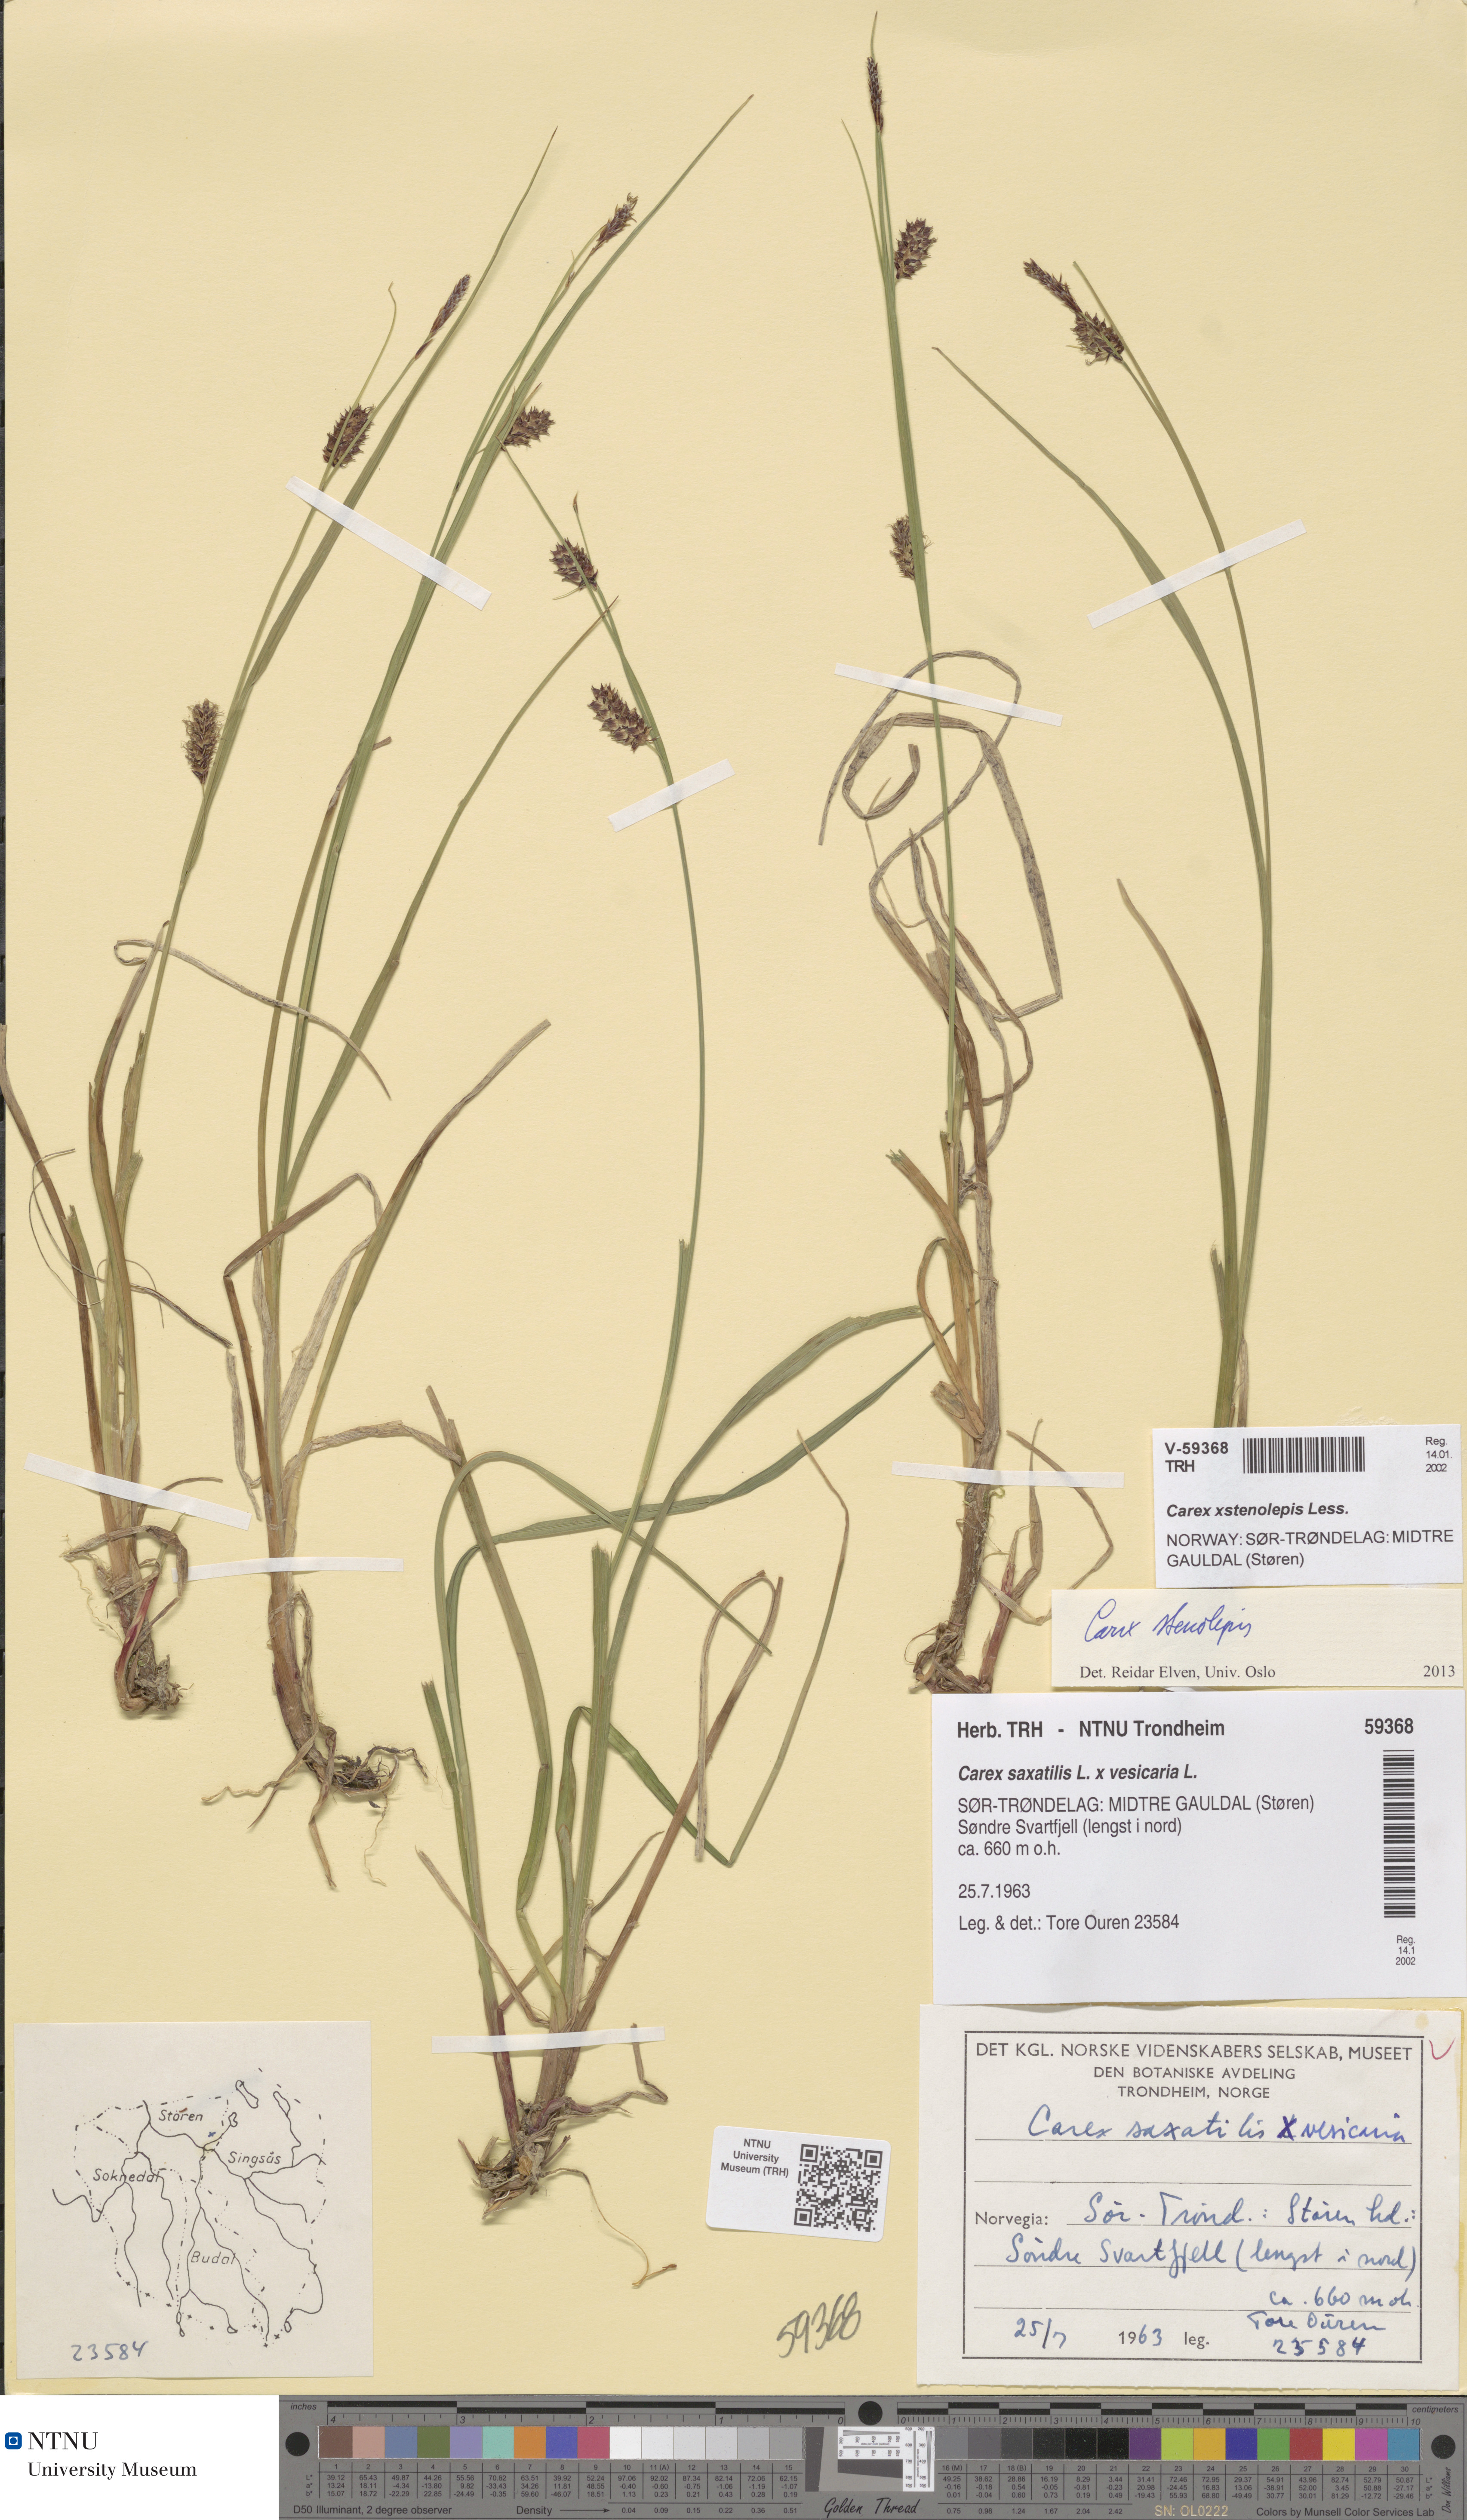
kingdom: Plantae
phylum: Tracheophyta
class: Liliopsida
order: Poales
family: Cyperaceae
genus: Carex
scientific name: Carex grahamii
